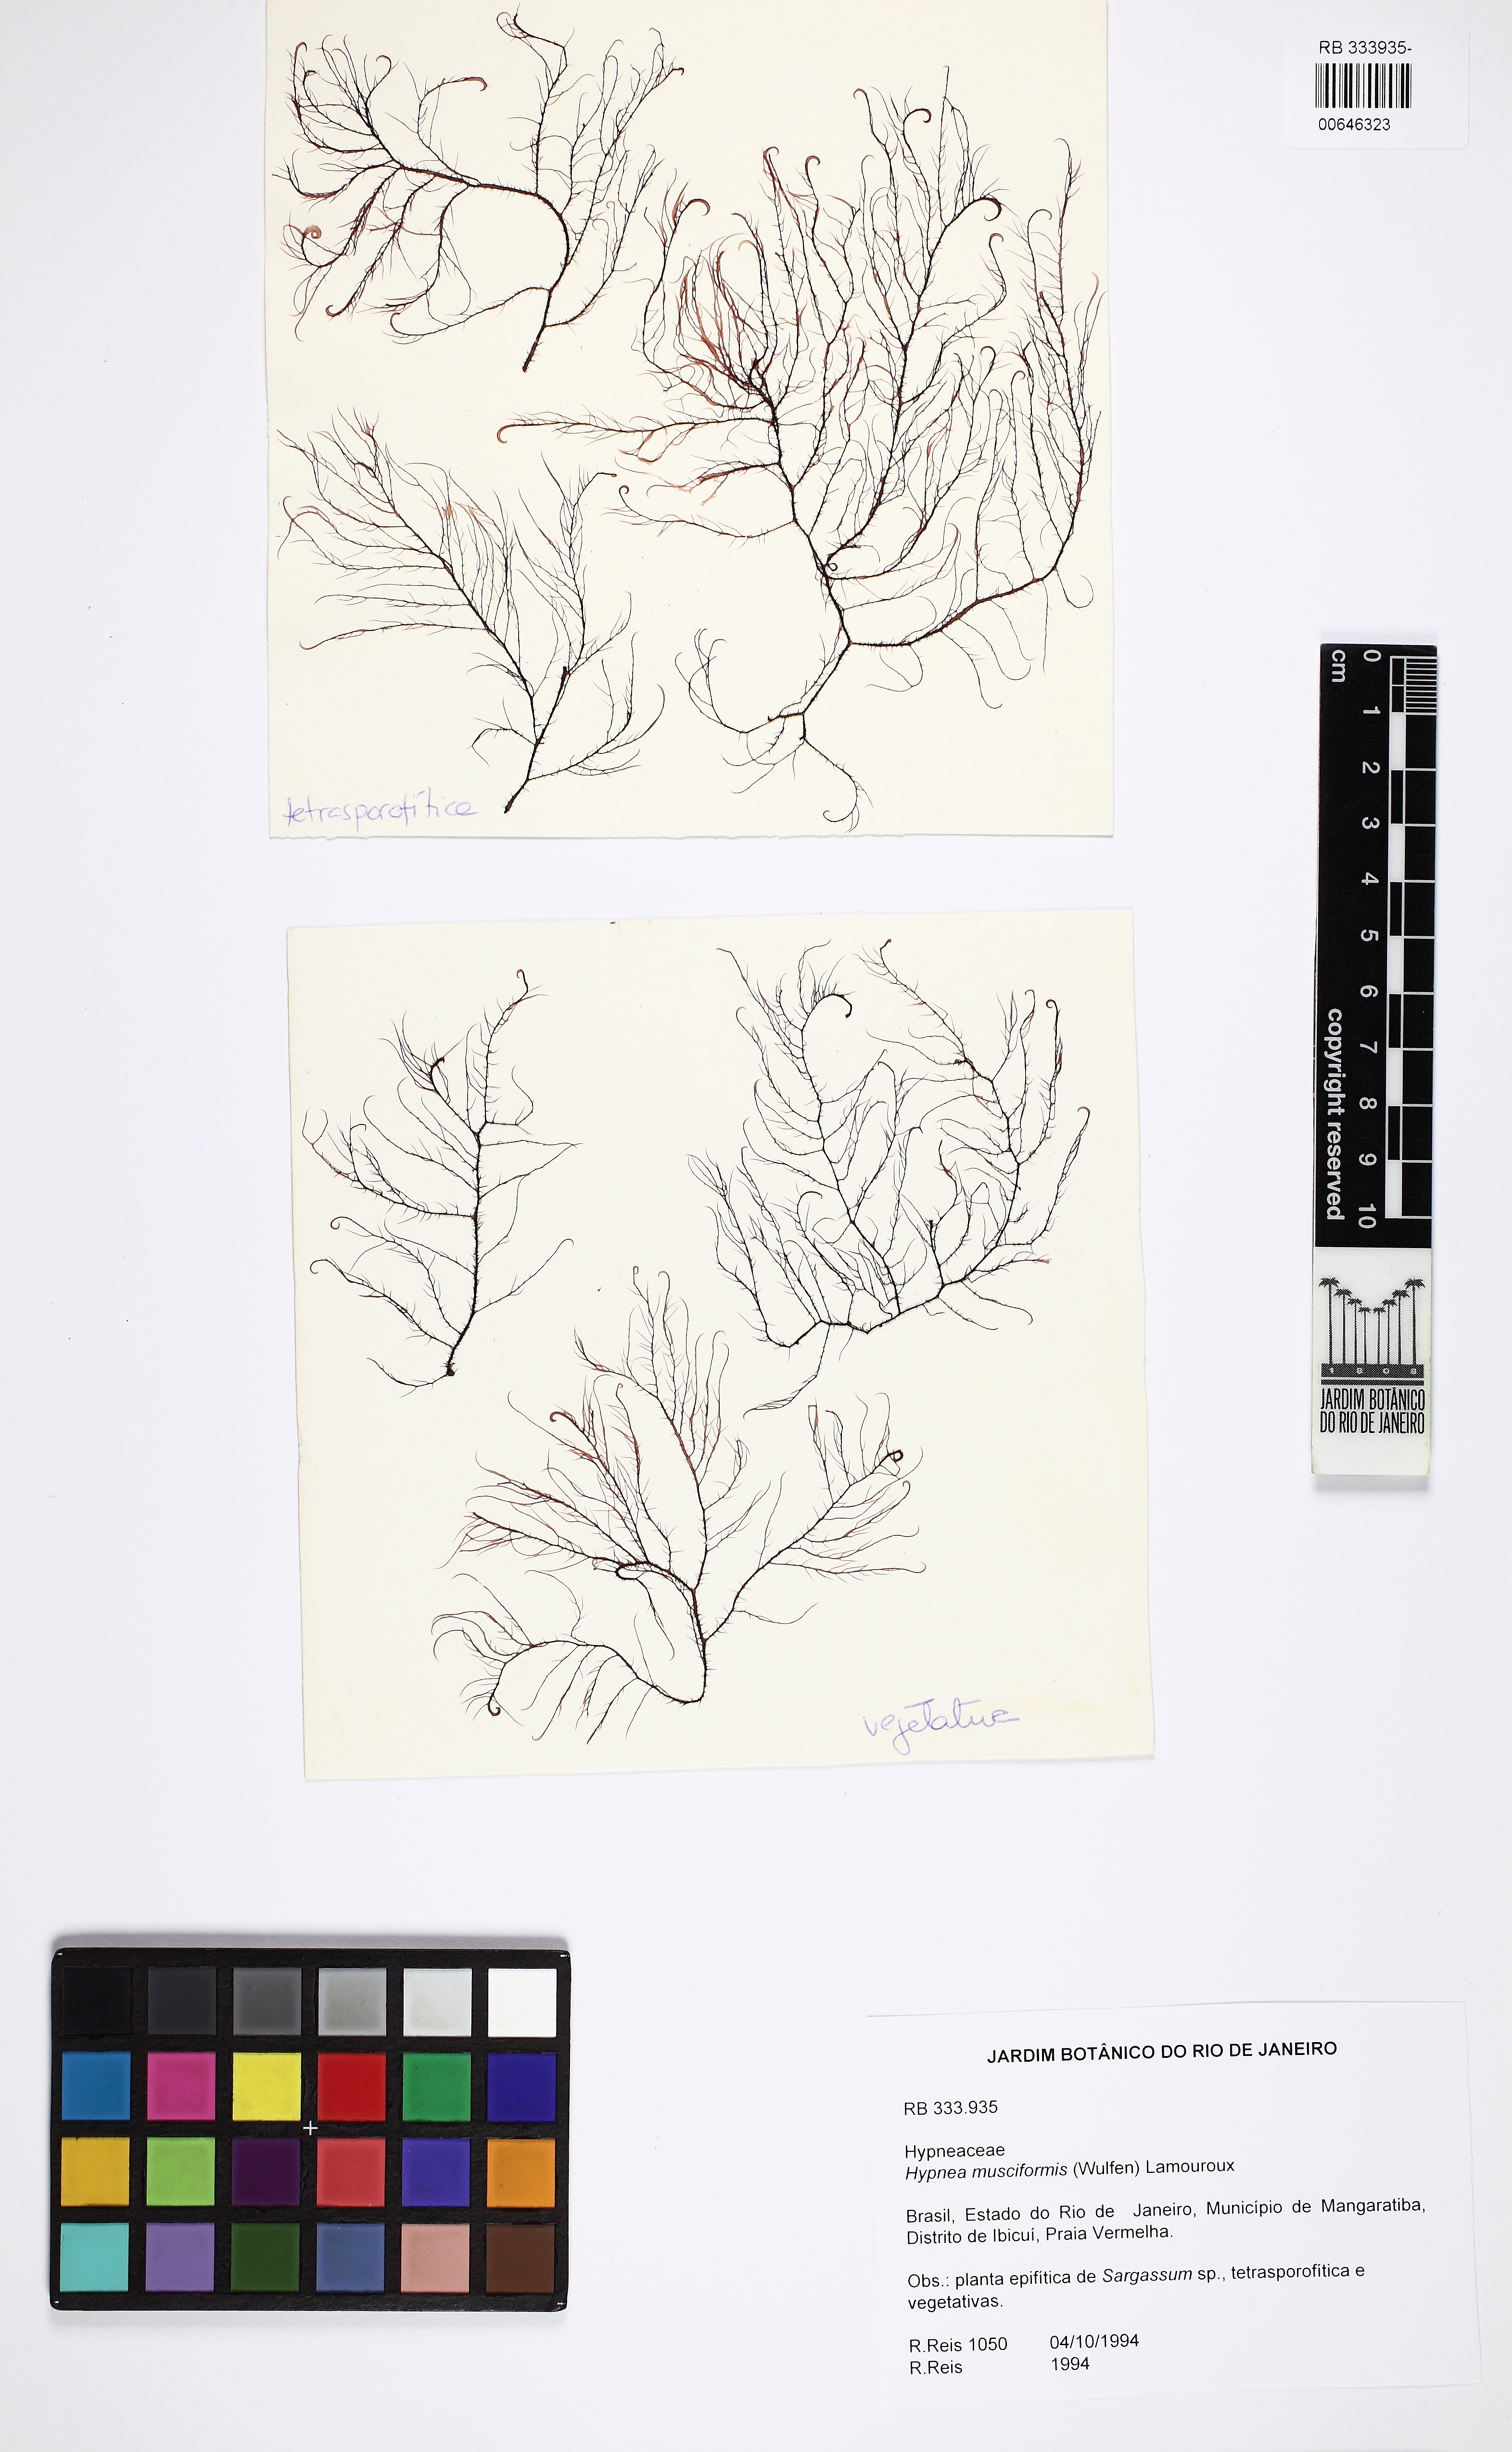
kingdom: Plantae
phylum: Rhodophyta
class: Florideophyceae
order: Gigartinales
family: Cystocloniaceae
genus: Hypnea
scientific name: Hypnea musciformis
